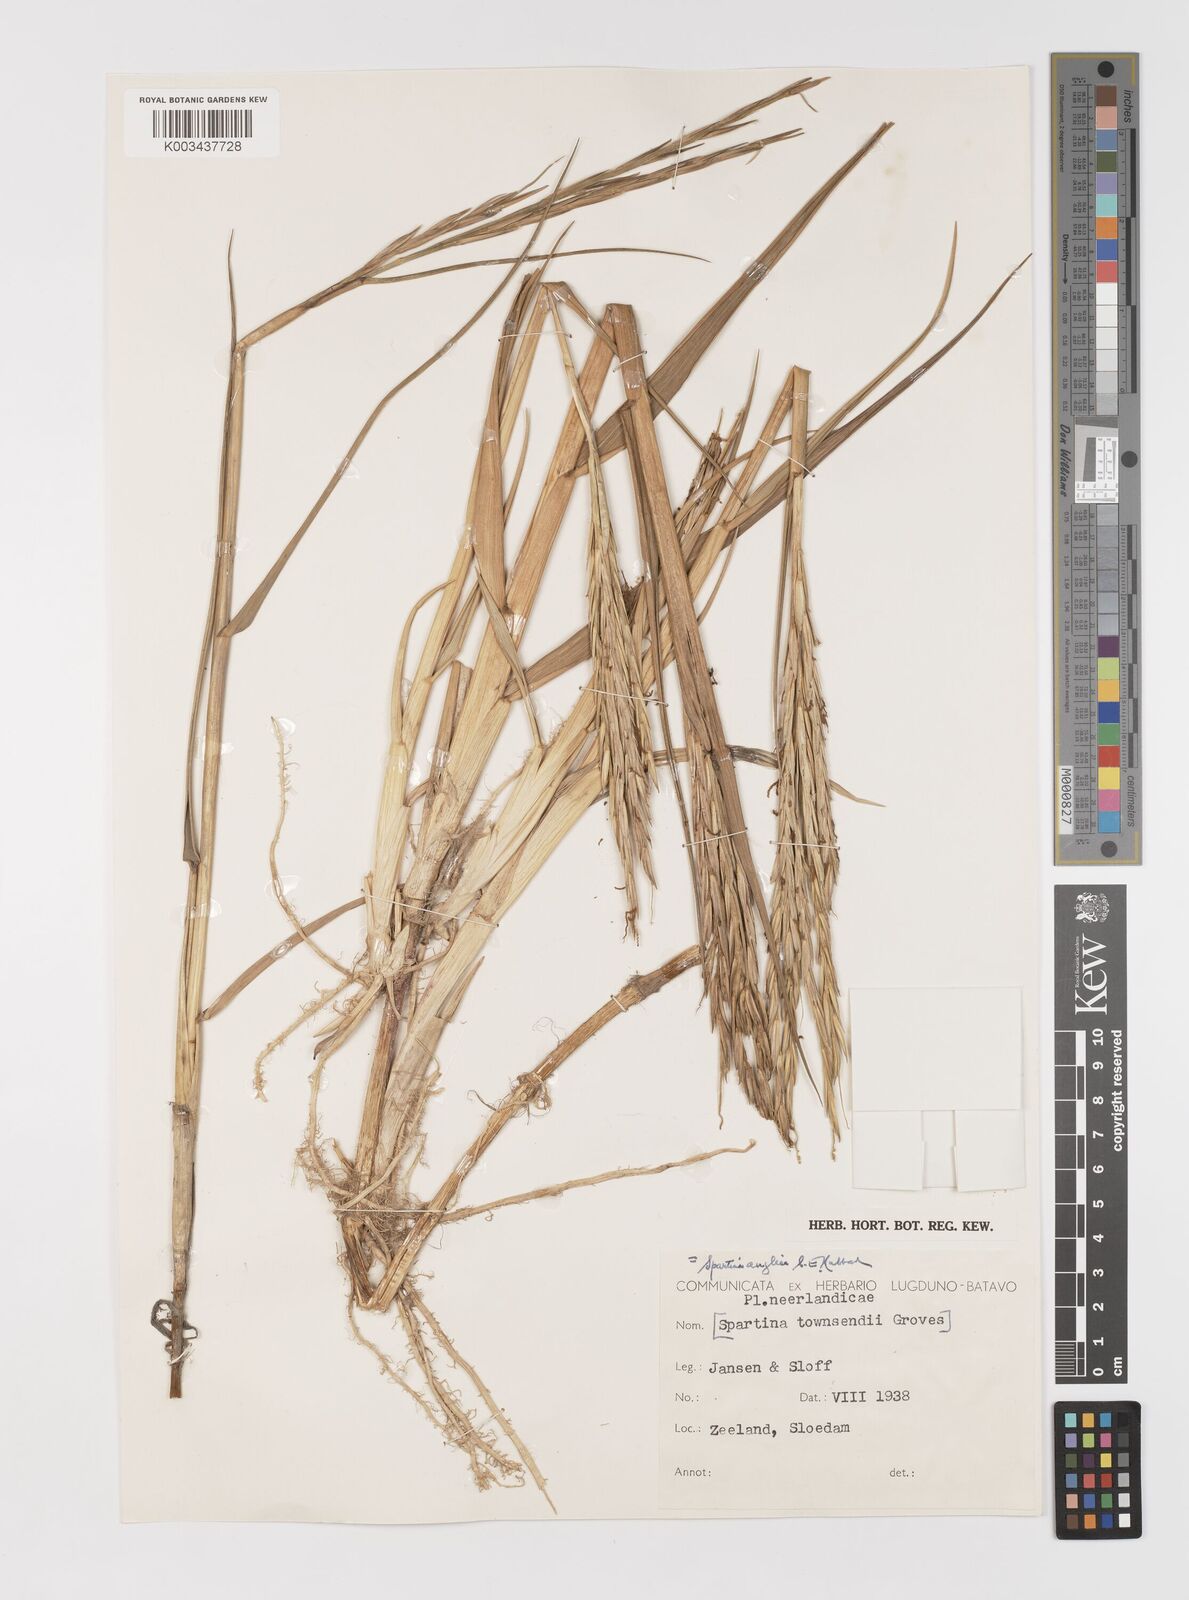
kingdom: Plantae
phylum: Tracheophyta
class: Liliopsida
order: Poales
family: Poaceae
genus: Sporobolus
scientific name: Sporobolus anglicus
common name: English cordgrass
